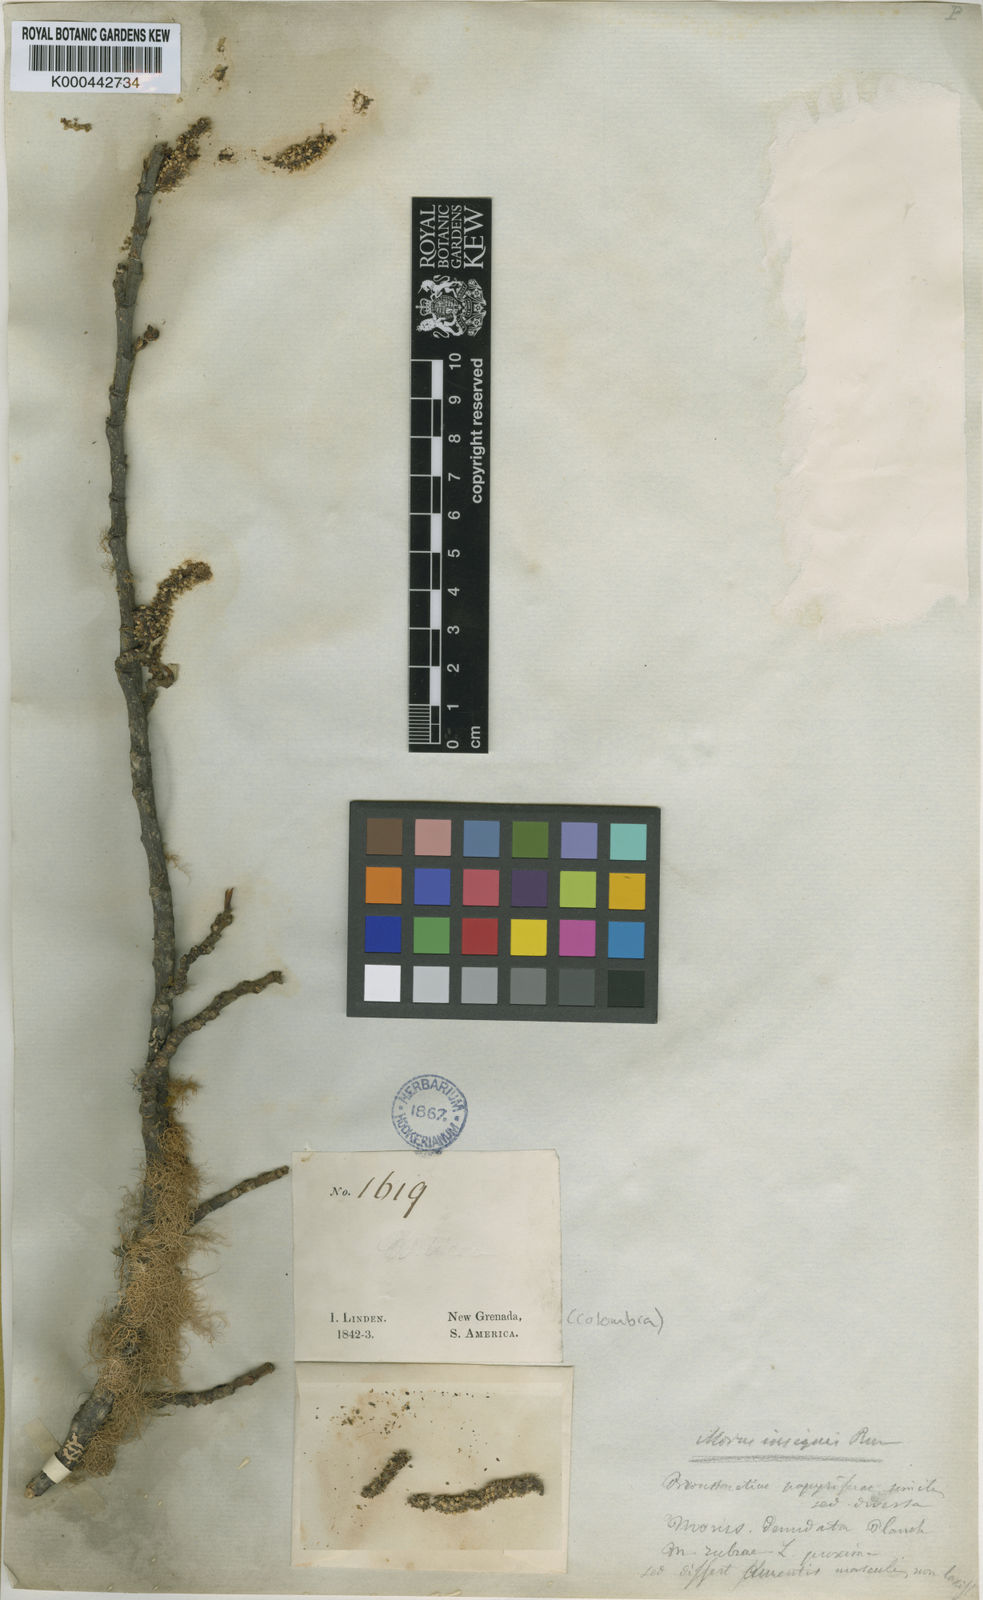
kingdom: Plantae
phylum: Tracheophyta
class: Magnoliopsida
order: Rosales
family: Moraceae
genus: Paratrophis
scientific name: Paratrophis insignis
